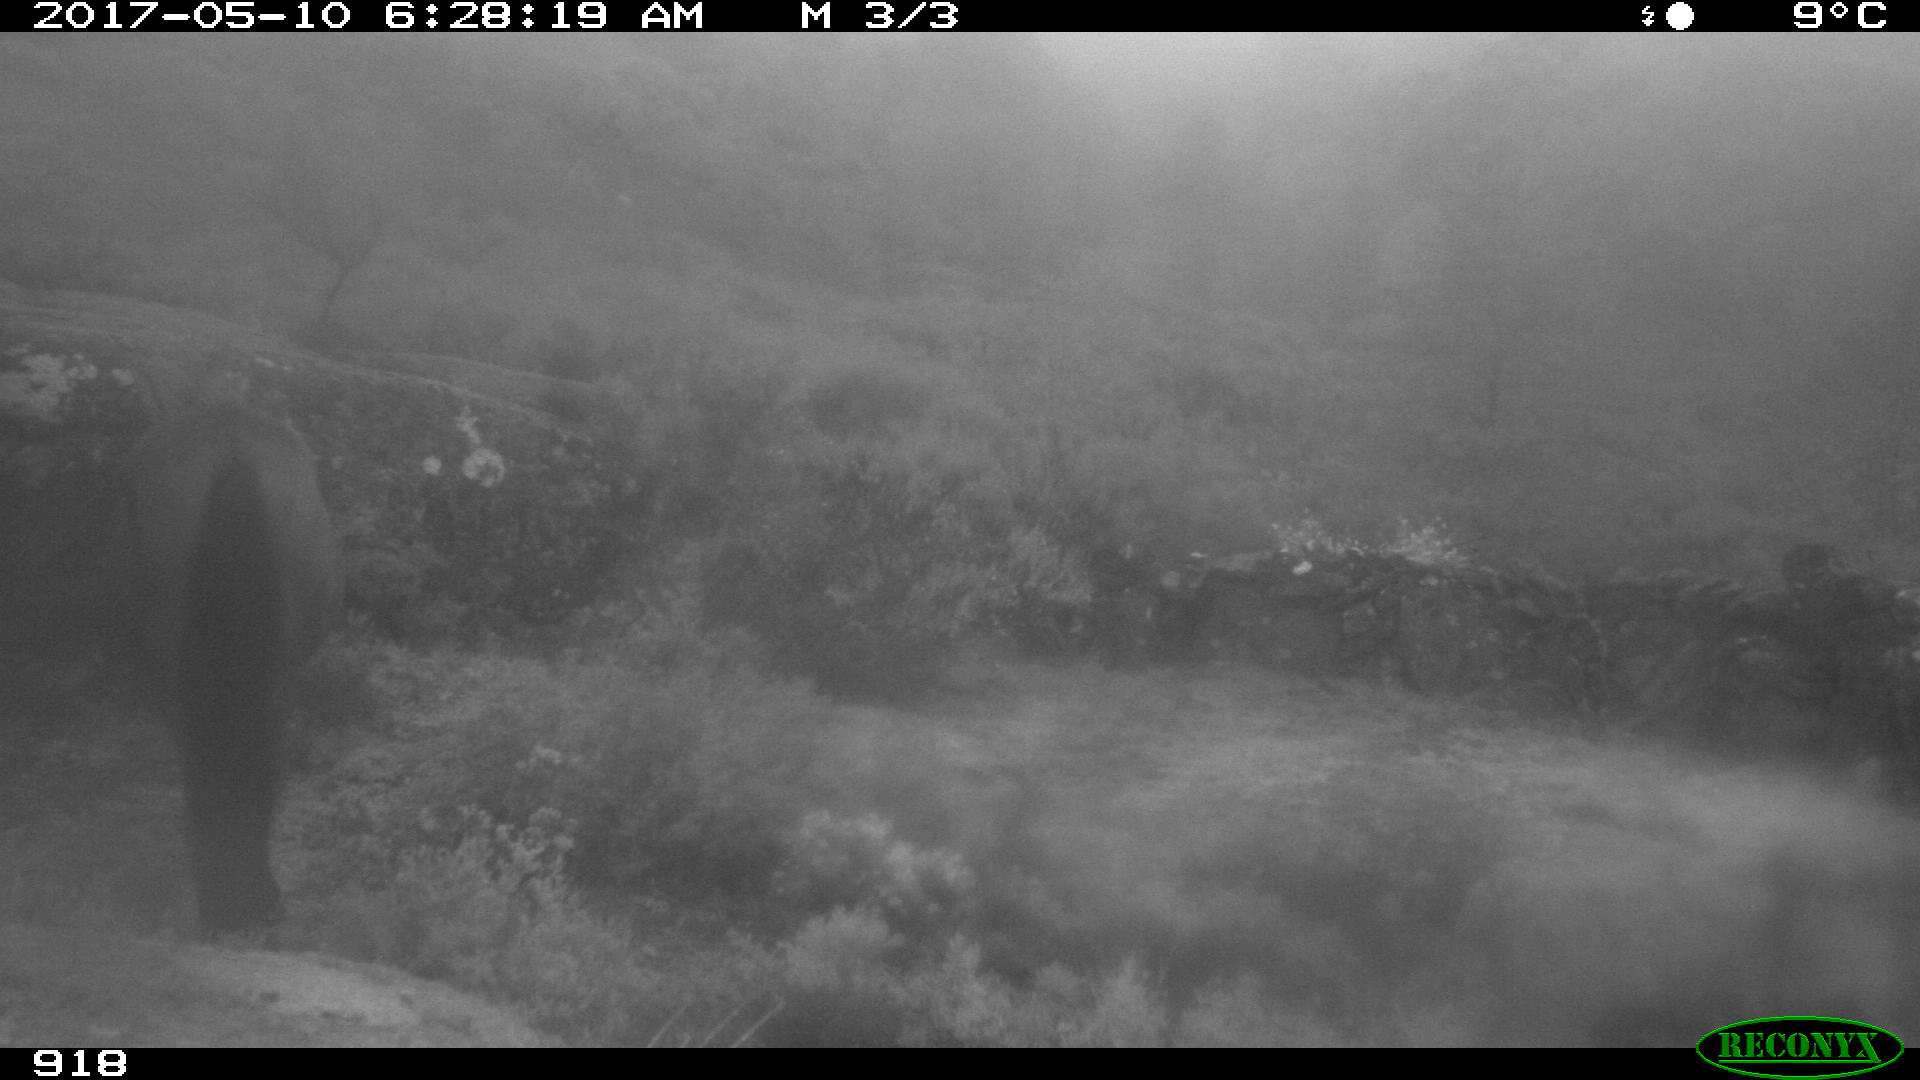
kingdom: Animalia
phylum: Chordata
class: Mammalia
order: Perissodactyla
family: Equidae
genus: Equus
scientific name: Equus caballus
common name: Horse
